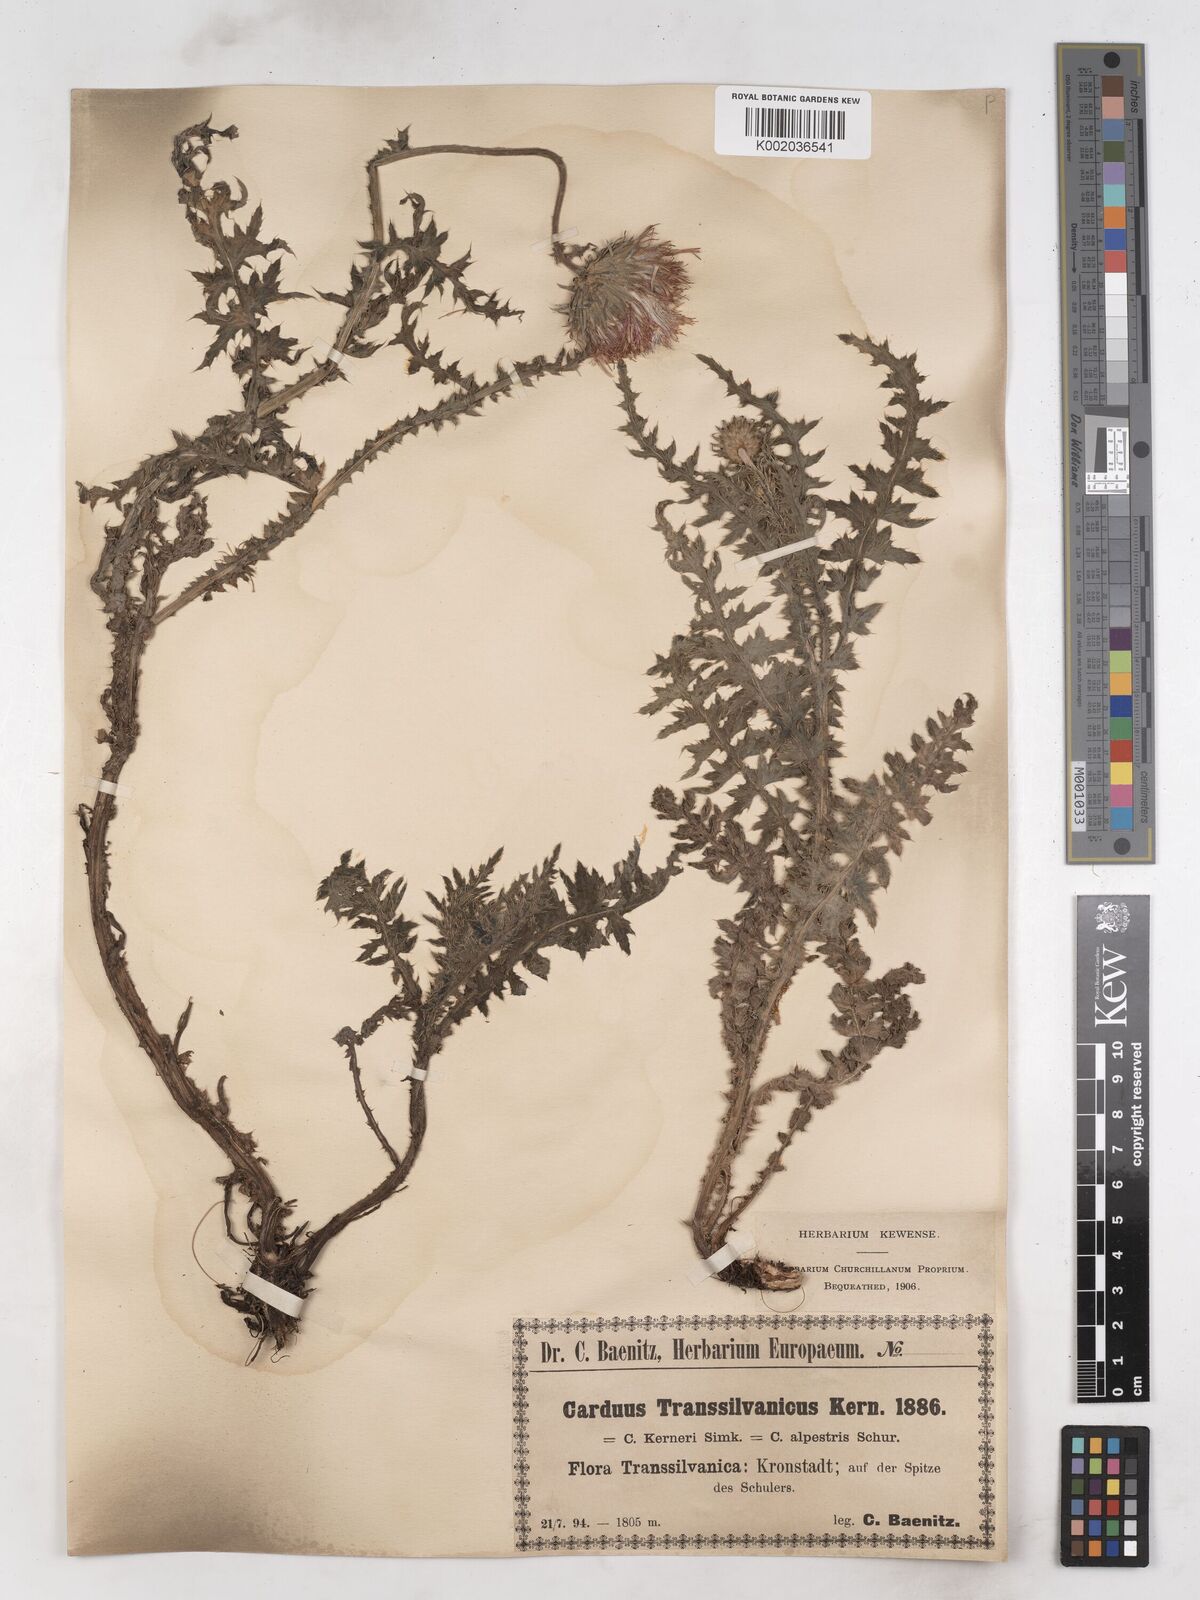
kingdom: Plantae
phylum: Tracheophyta
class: Magnoliopsida
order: Asterales
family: Asteraceae
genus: Carduus
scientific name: Carduus kerneri
